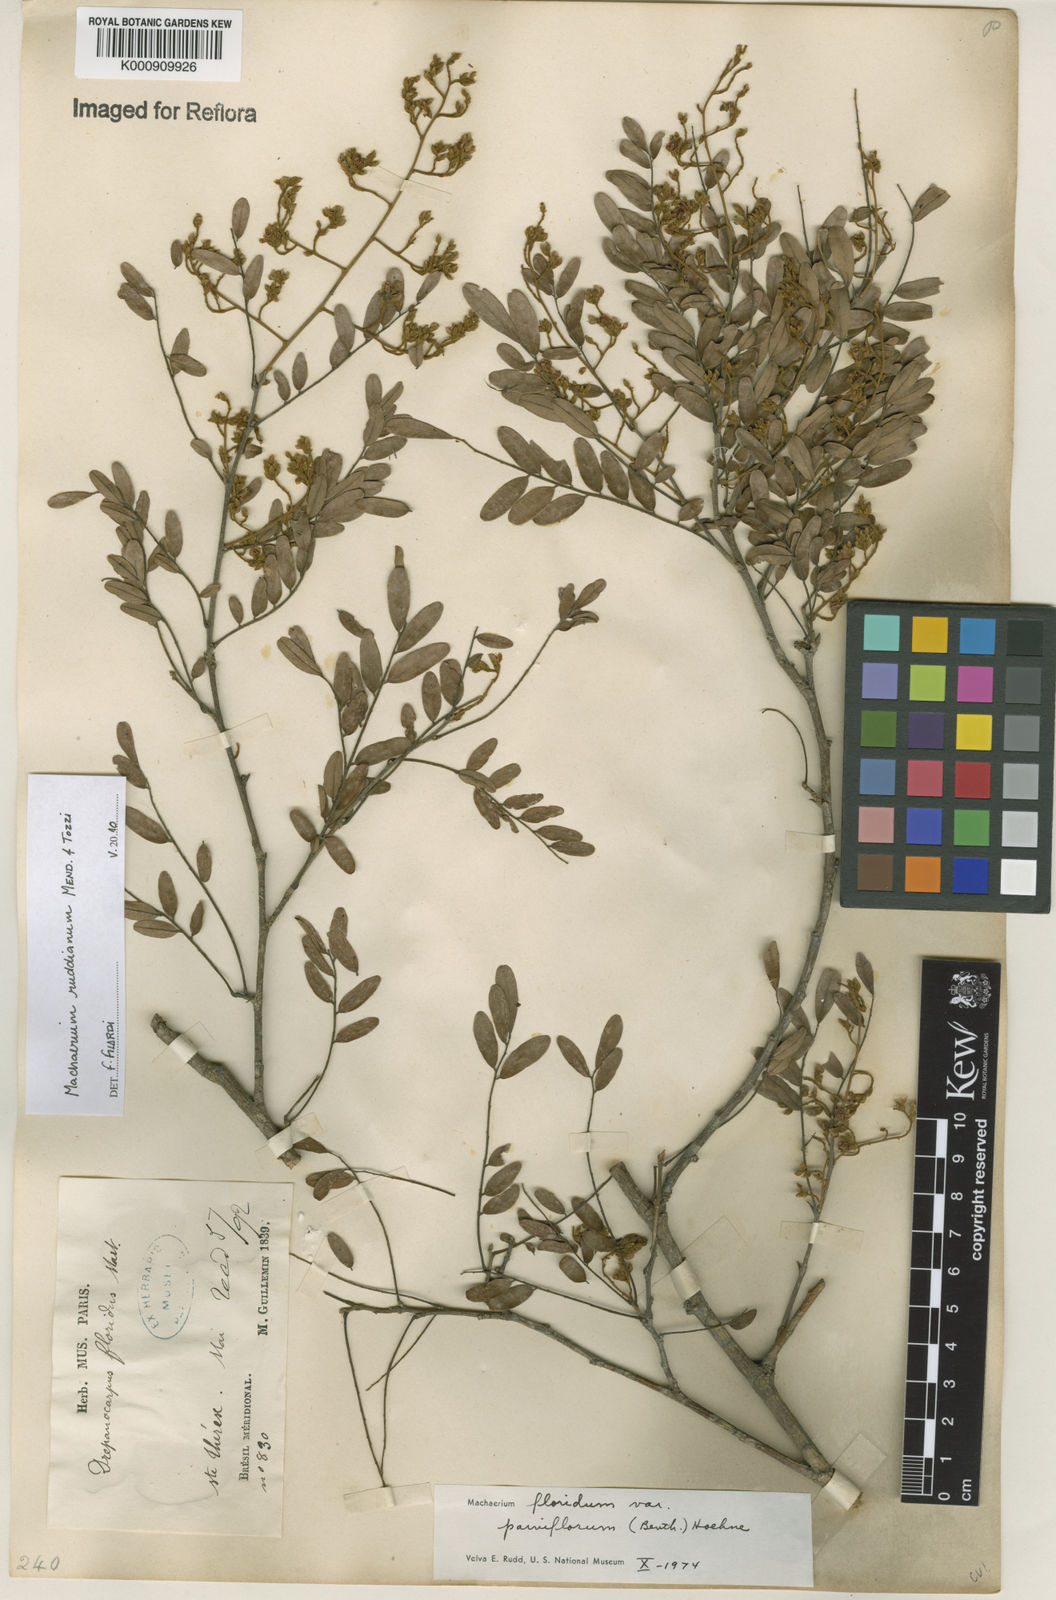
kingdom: Plantae
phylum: Tracheophyta
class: Magnoliopsida
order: Fabales
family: Fabaceae
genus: Machaerium
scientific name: Machaerium
